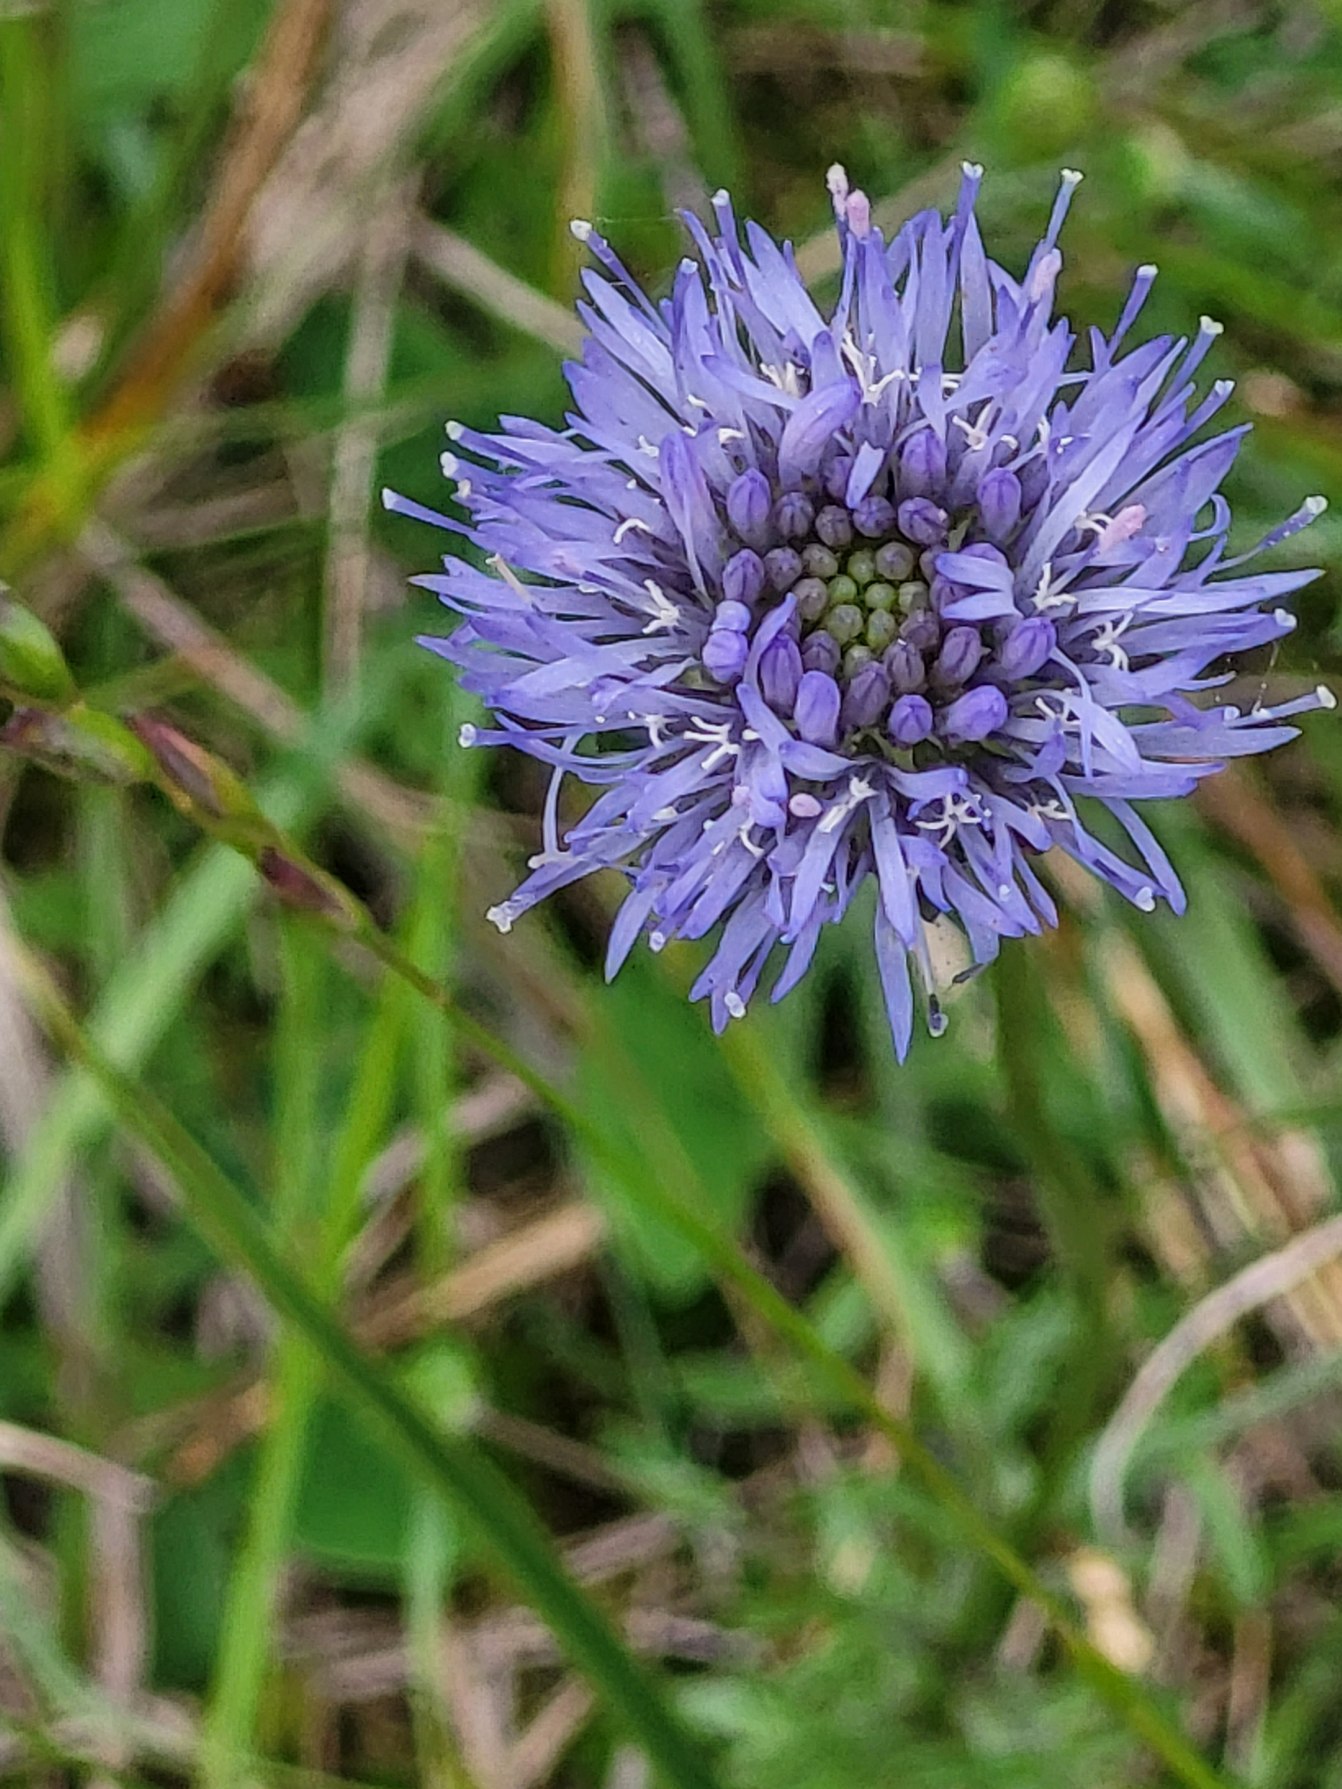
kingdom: Plantae
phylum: Tracheophyta
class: Magnoliopsida
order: Asterales
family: Campanulaceae
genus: Jasione
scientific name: Jasione montana
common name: Blåmunke
